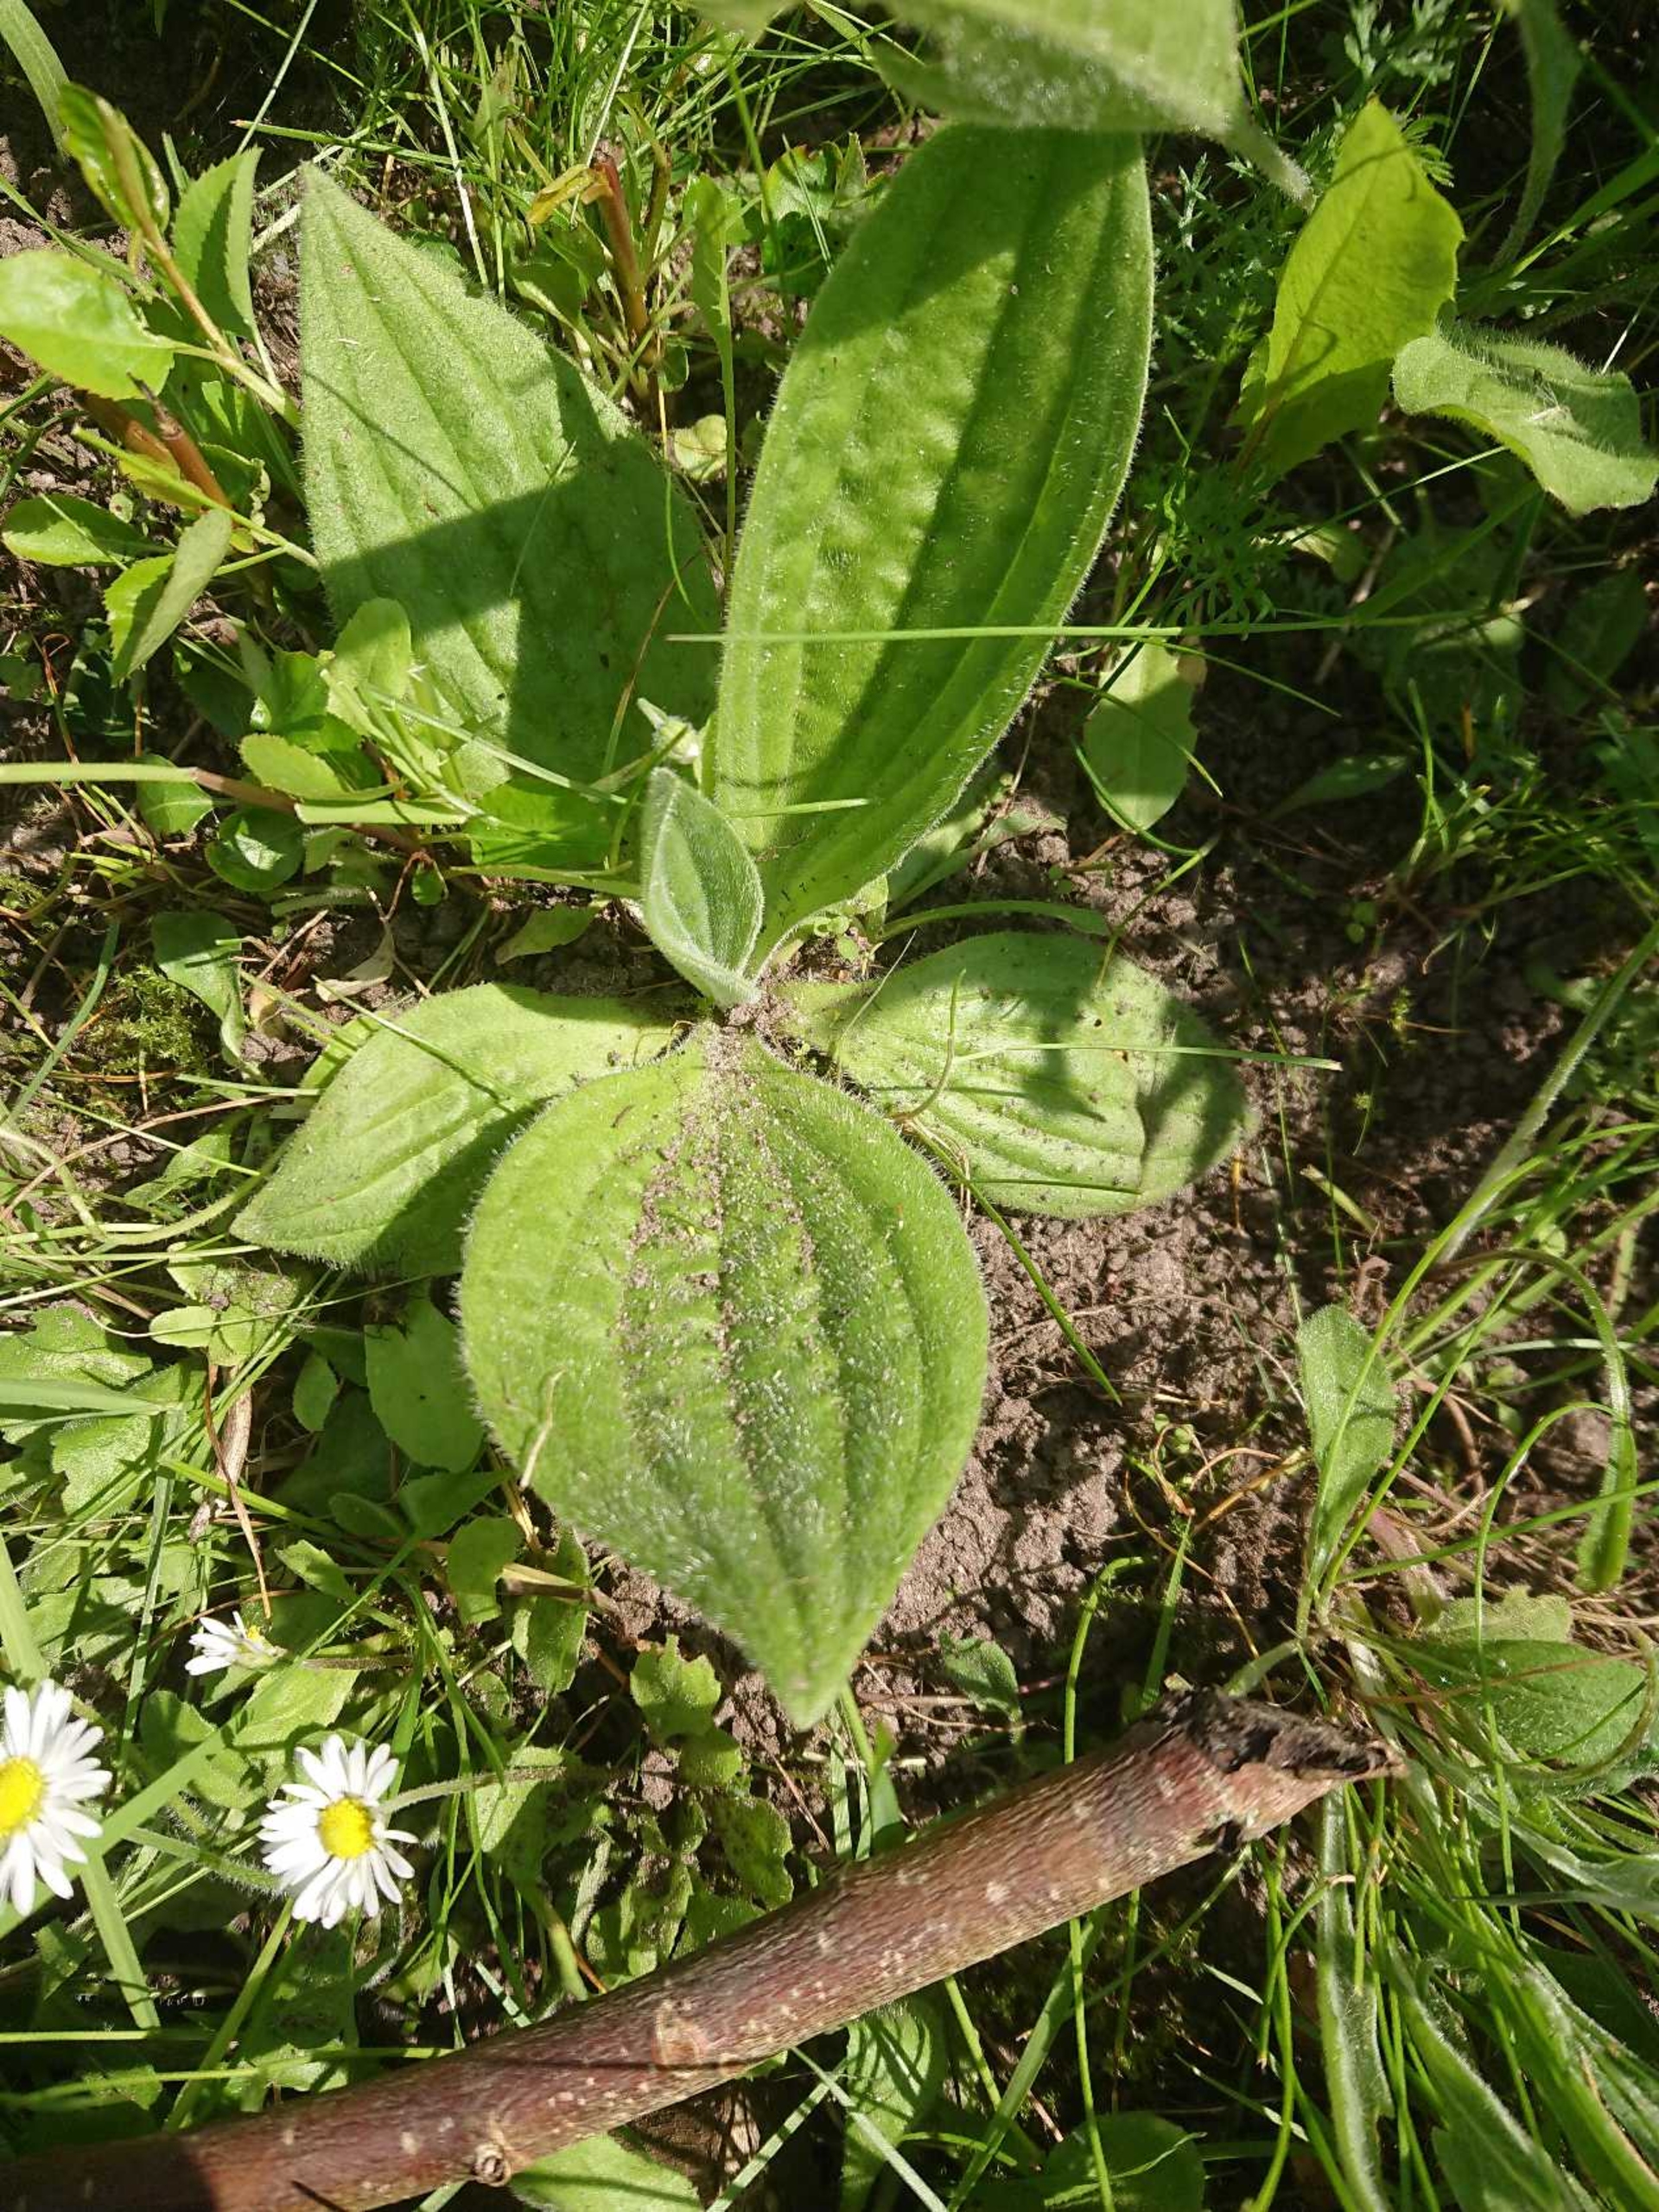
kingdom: Plantae
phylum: Tracheophyta
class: Magnoliopsida
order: Lamiales
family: Plantaginaceae
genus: Plantago
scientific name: Plantago media
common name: Dunet vejbred
